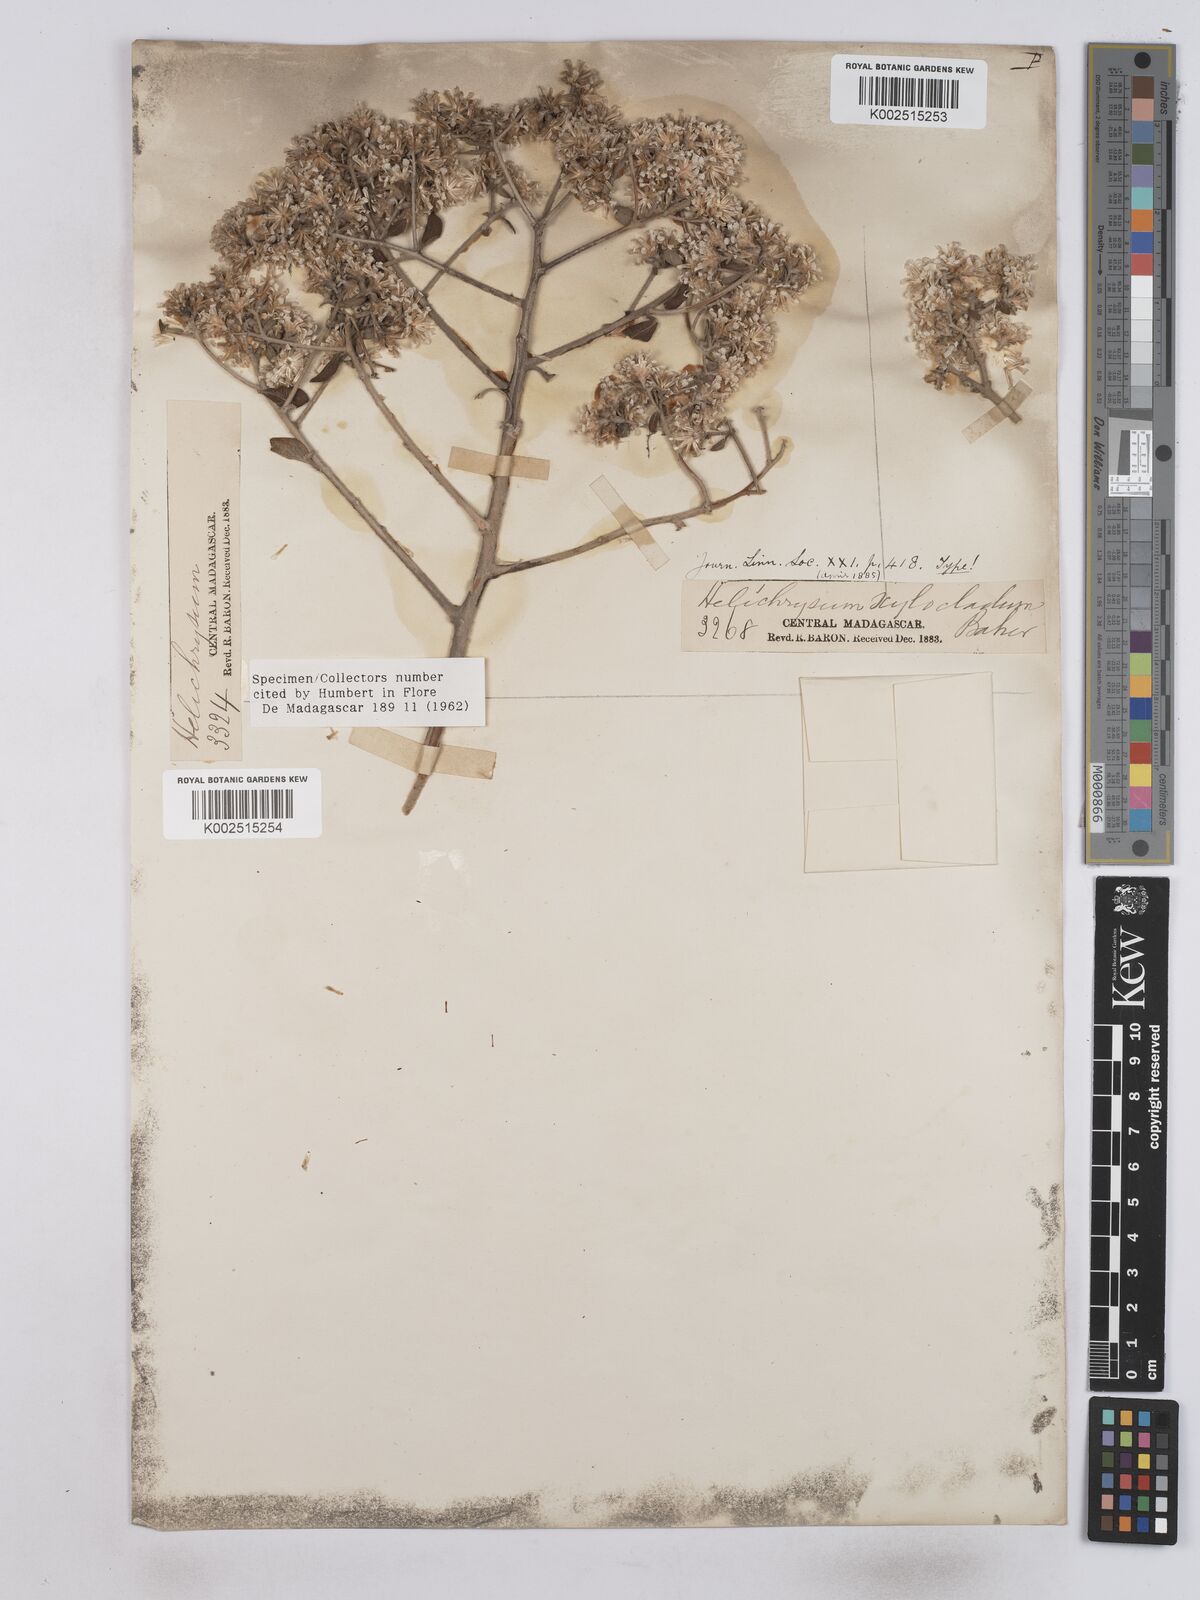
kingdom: Plantae
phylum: Tracheophyta
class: Magnoliopsida
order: Asterales
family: Asteraceae
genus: Helichrysum
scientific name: Helichrysum xylocladum
